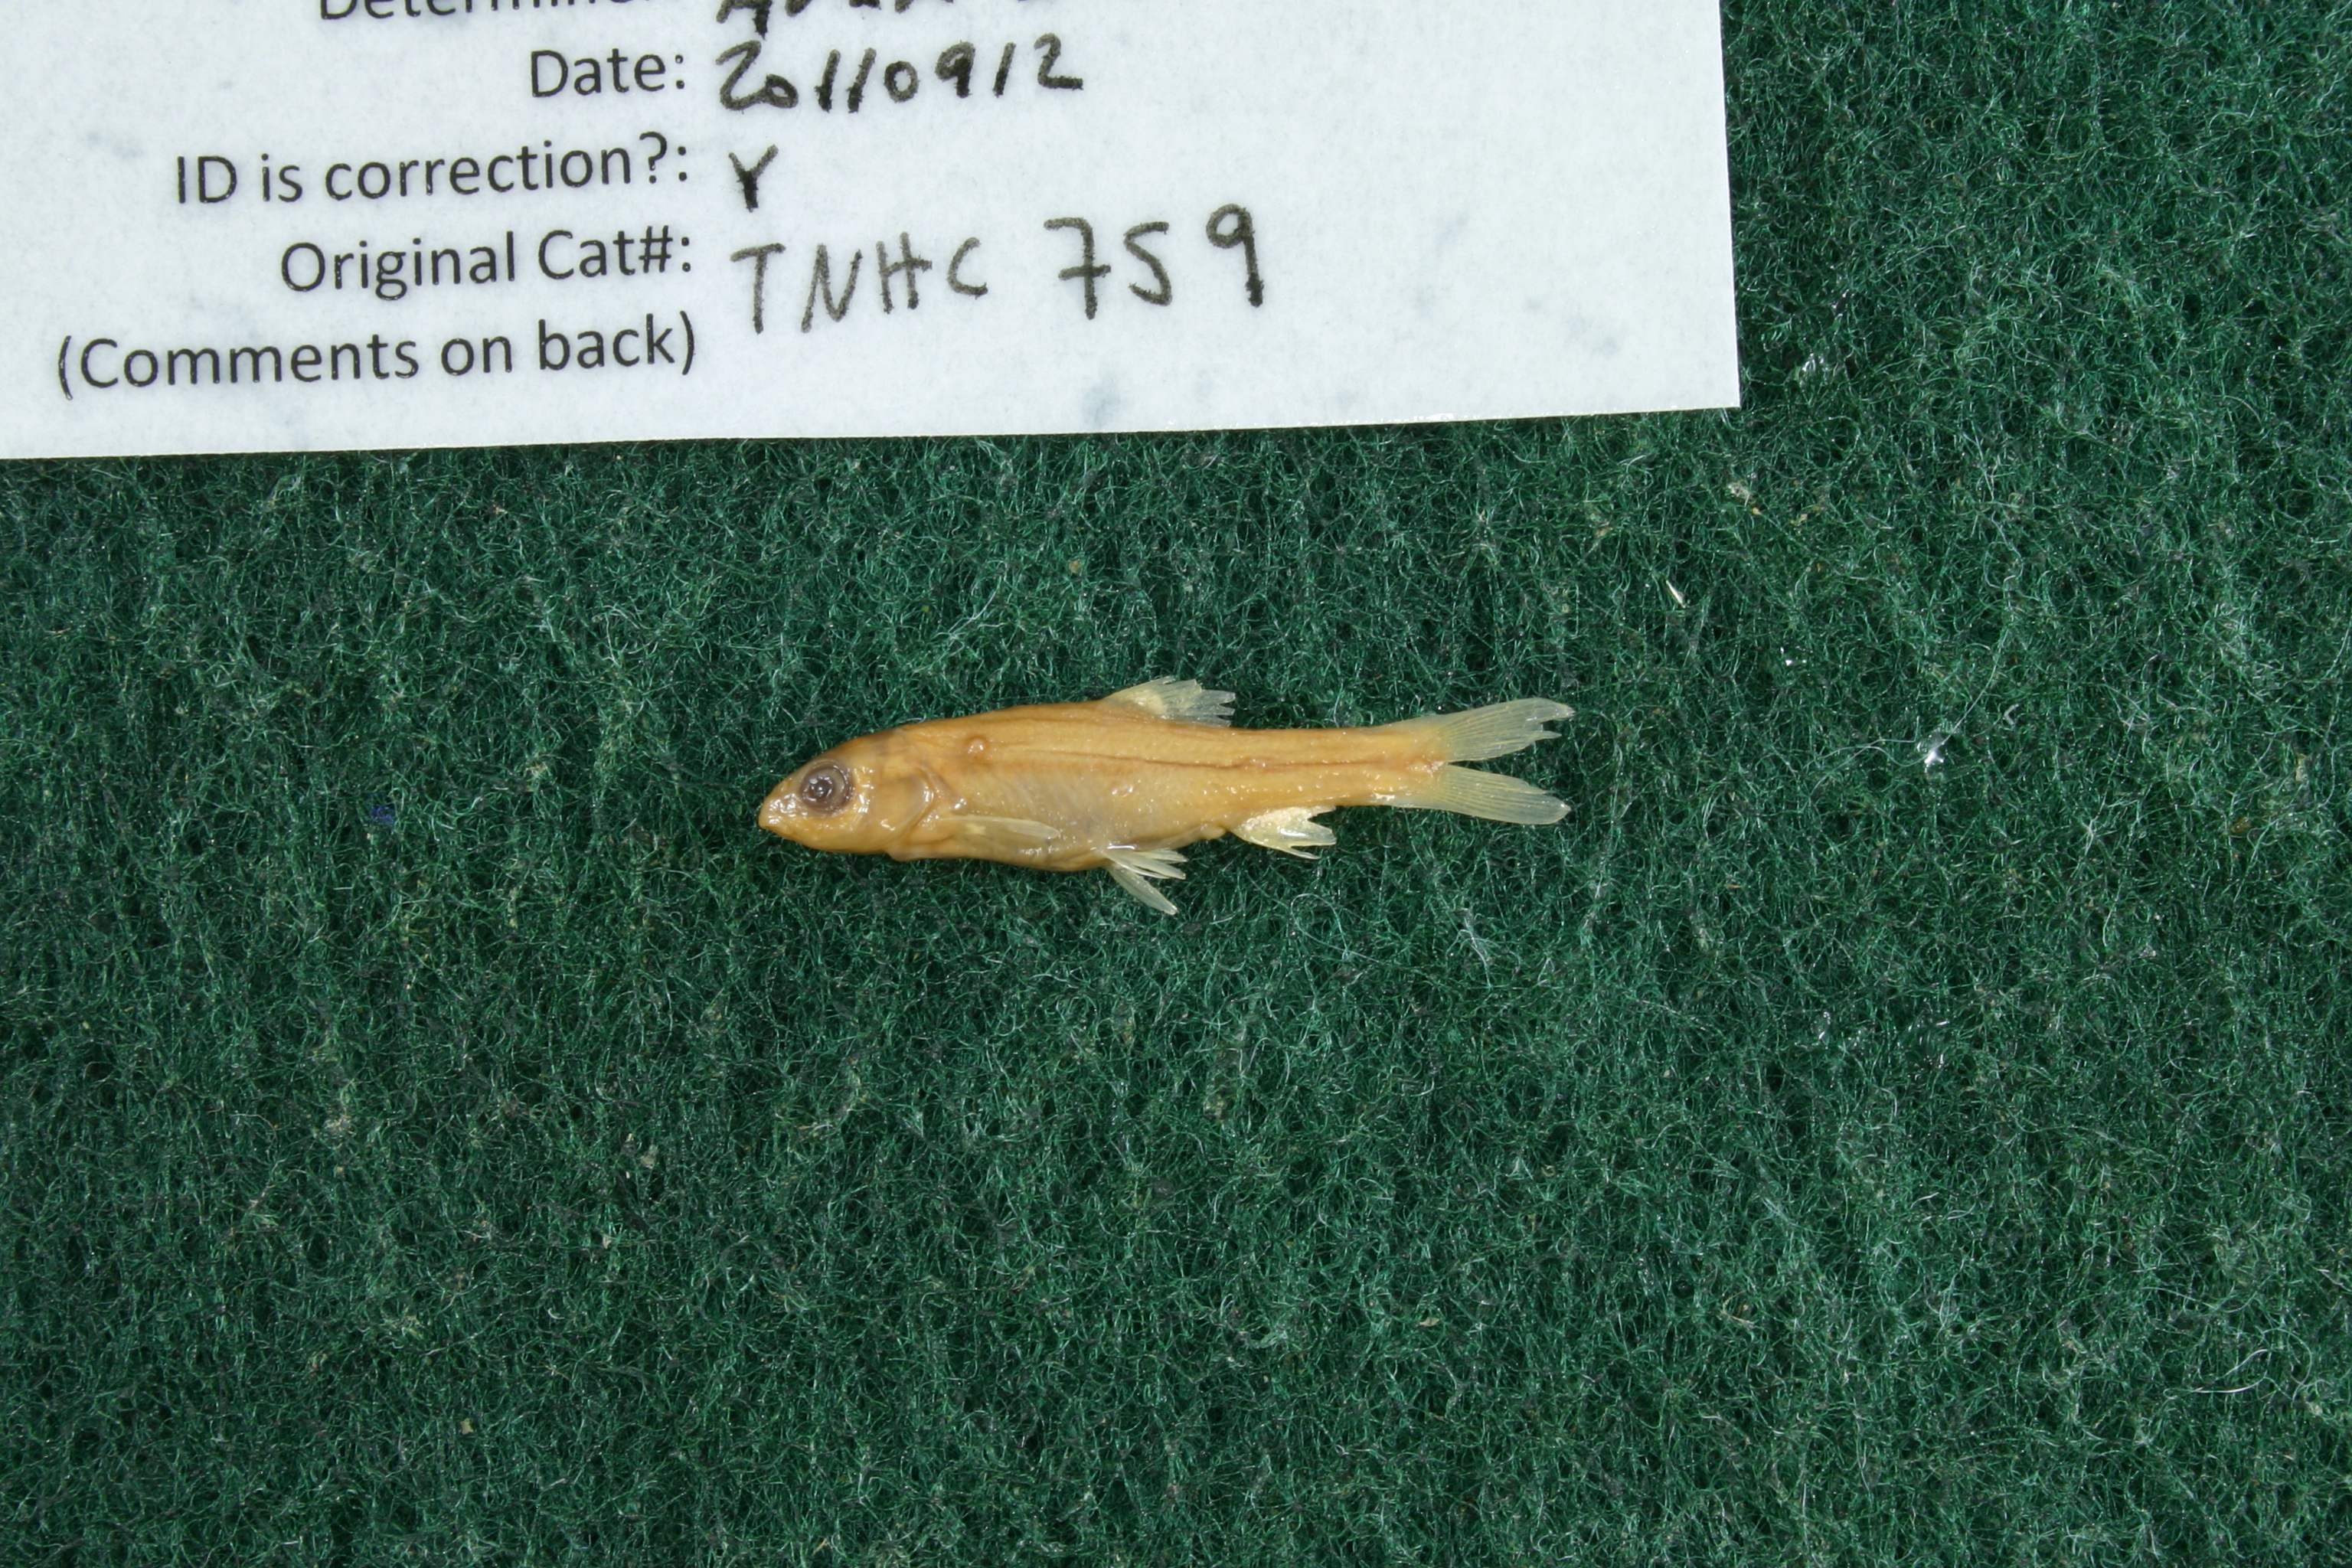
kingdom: Animalia
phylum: Chordata
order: Cypriniformes
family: Cyprinidae
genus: Campostoma
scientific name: Campostoma anomalum
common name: Central stoneroller
